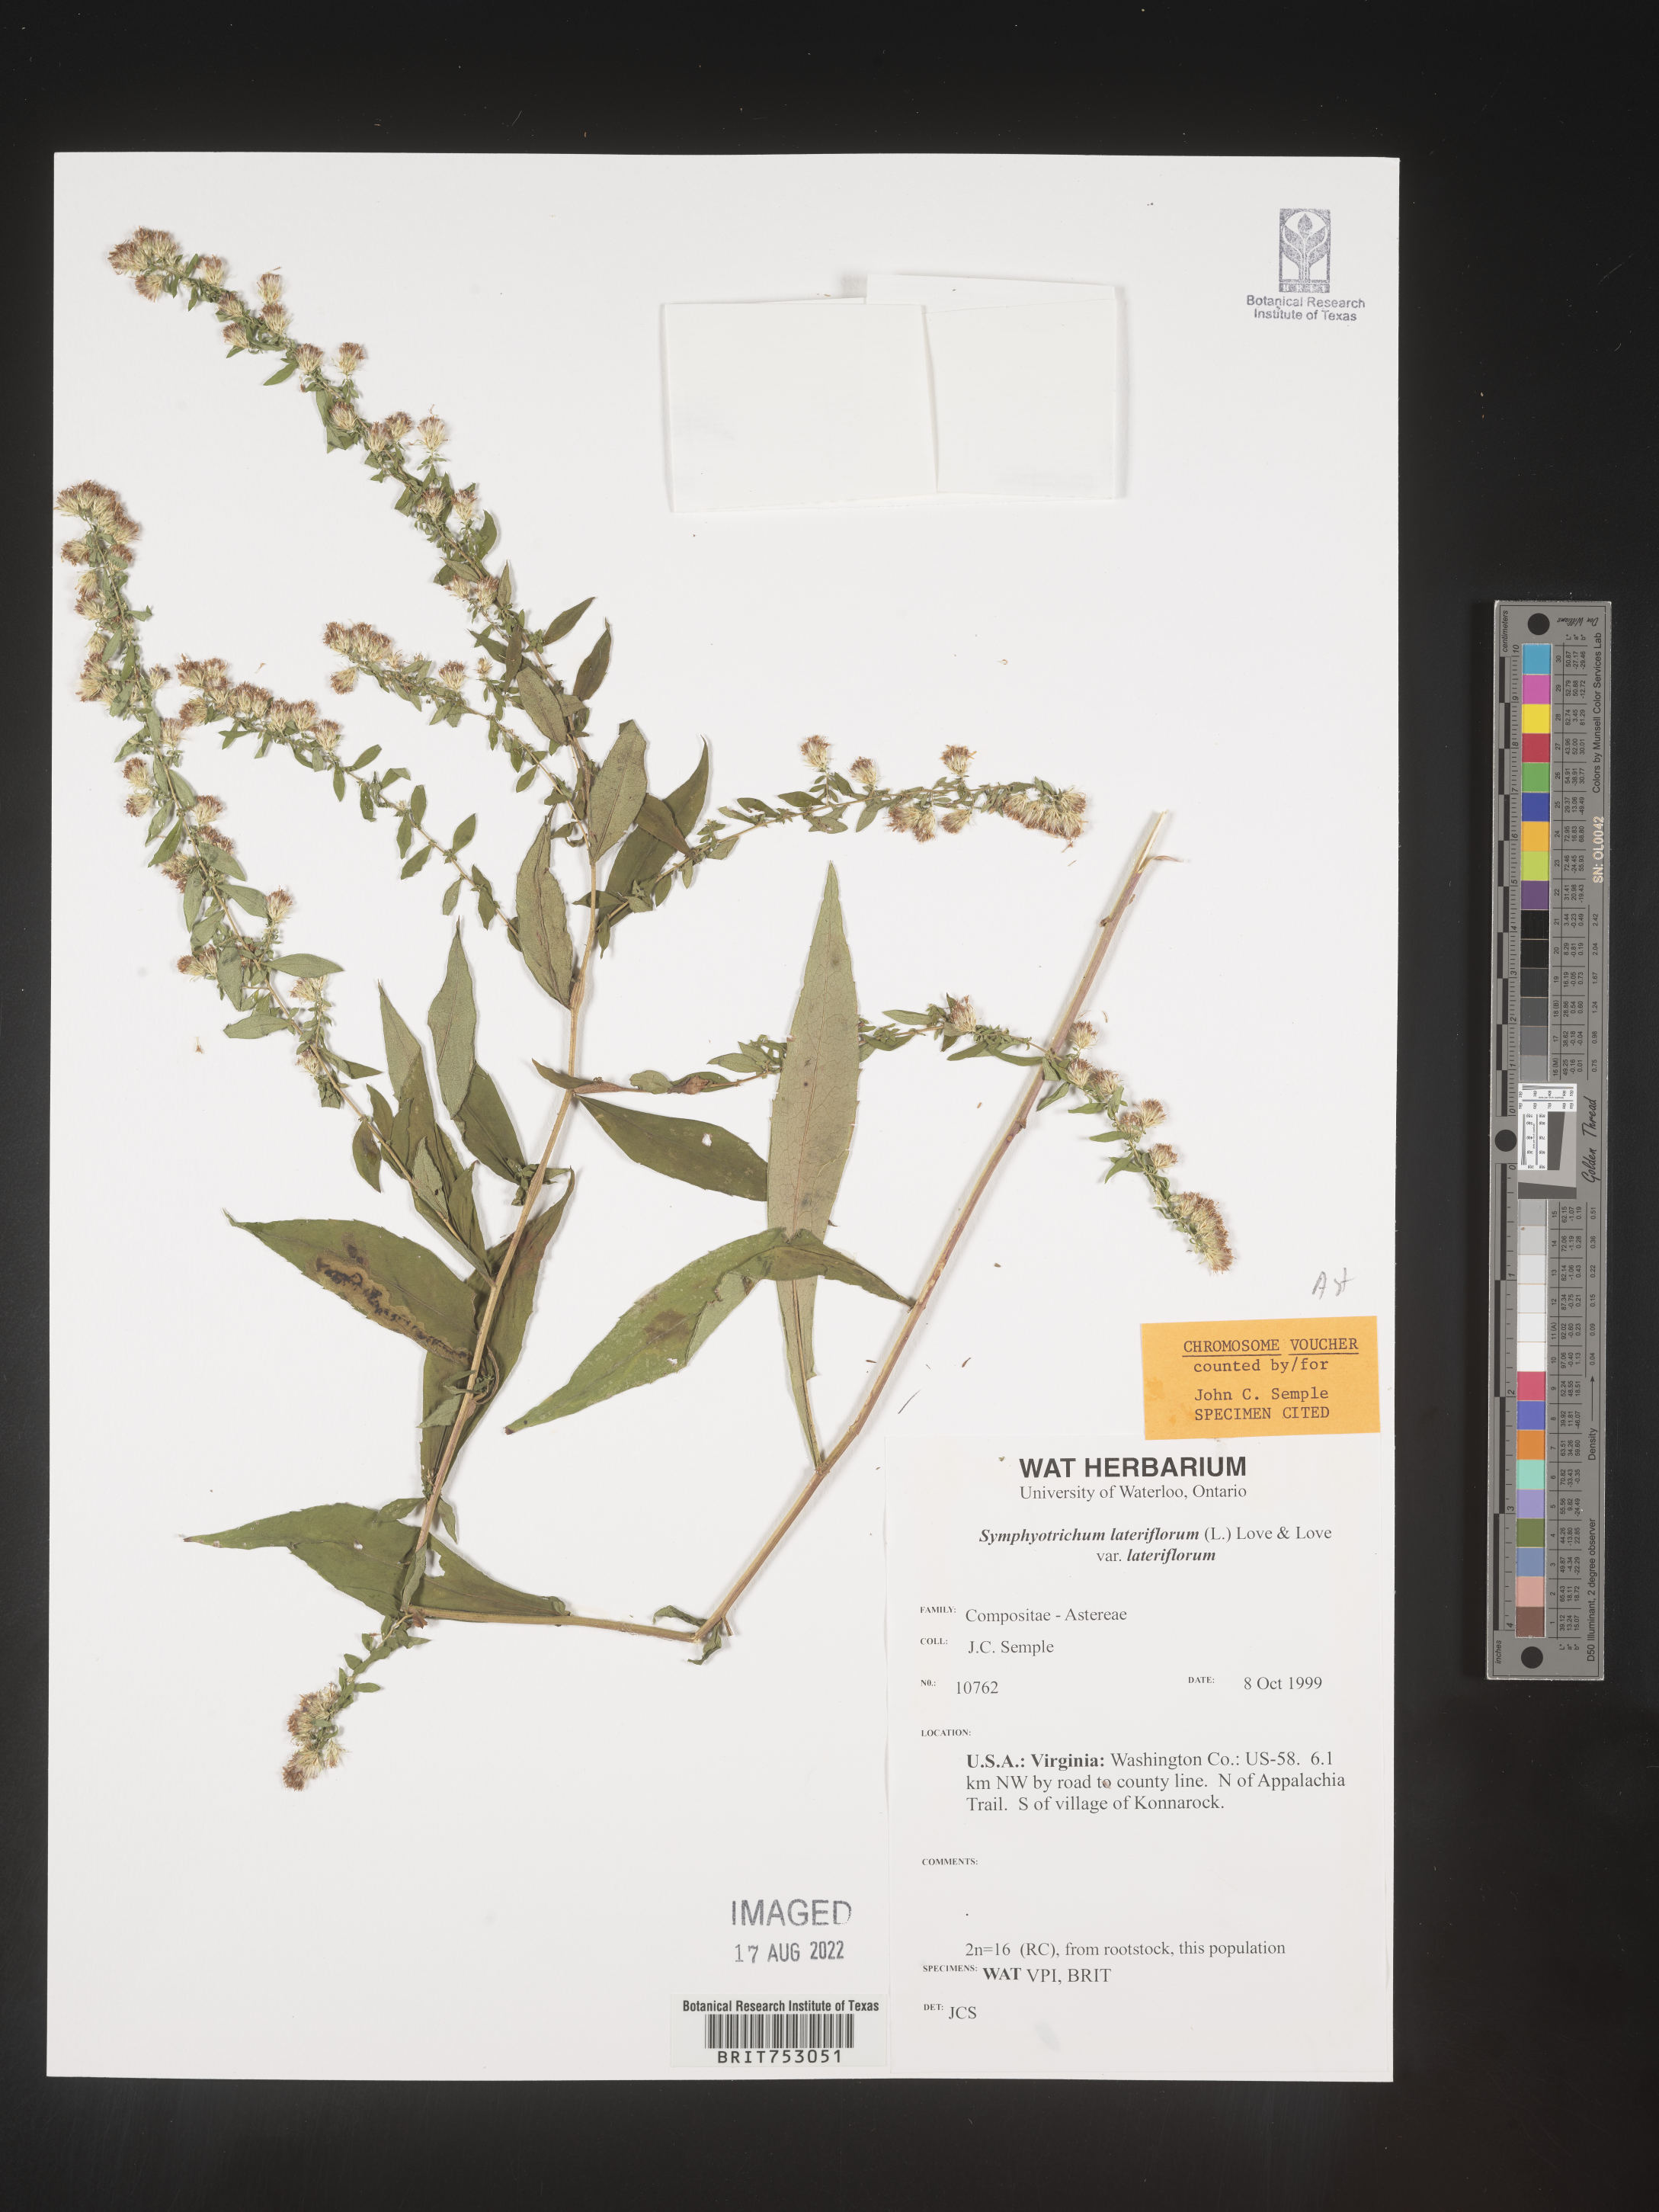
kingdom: Plantae
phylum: Tracheophyta
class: Magnoliopsida
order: Asterales
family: Asteraceae
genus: Symphyotrichum
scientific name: Symphyotrichum lateriflorum
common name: Calico aster
